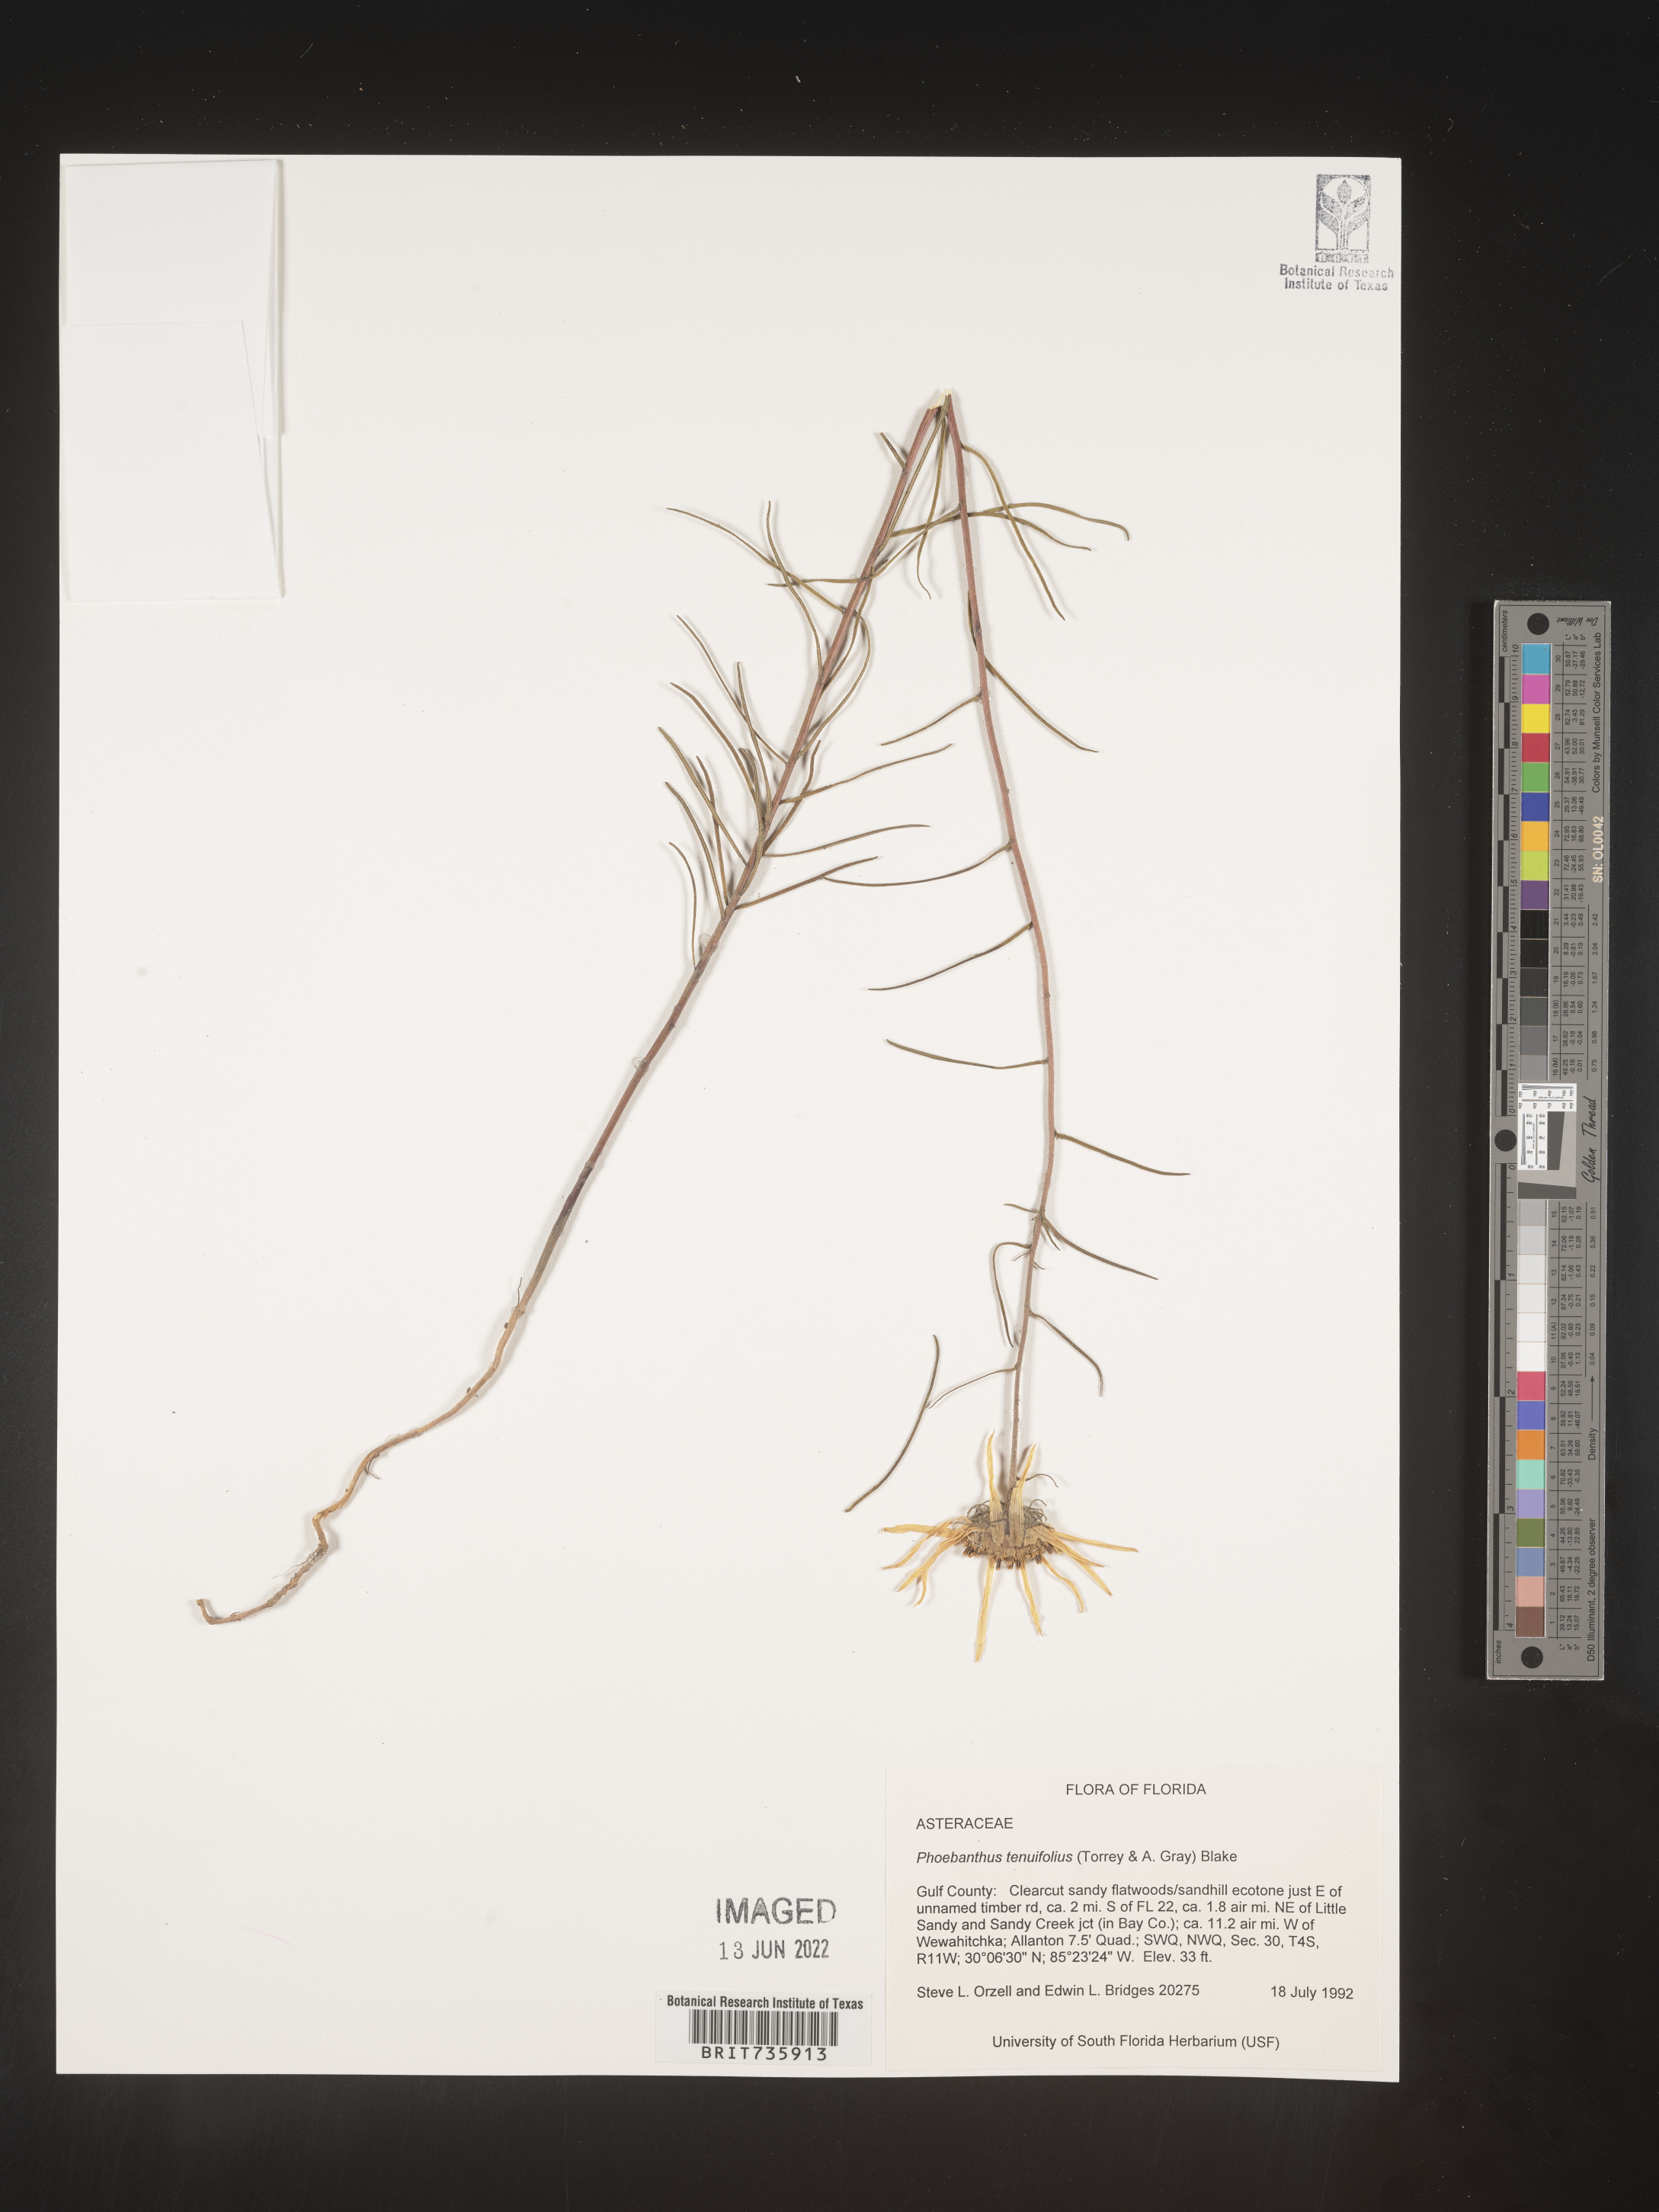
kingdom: Plantae
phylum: Tracheophyta
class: Magnoliopsida
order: Asterales
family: Asteraceae
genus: Phoebanthus
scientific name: Phoebanthus tenuifolia
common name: Pineland false sunflower
